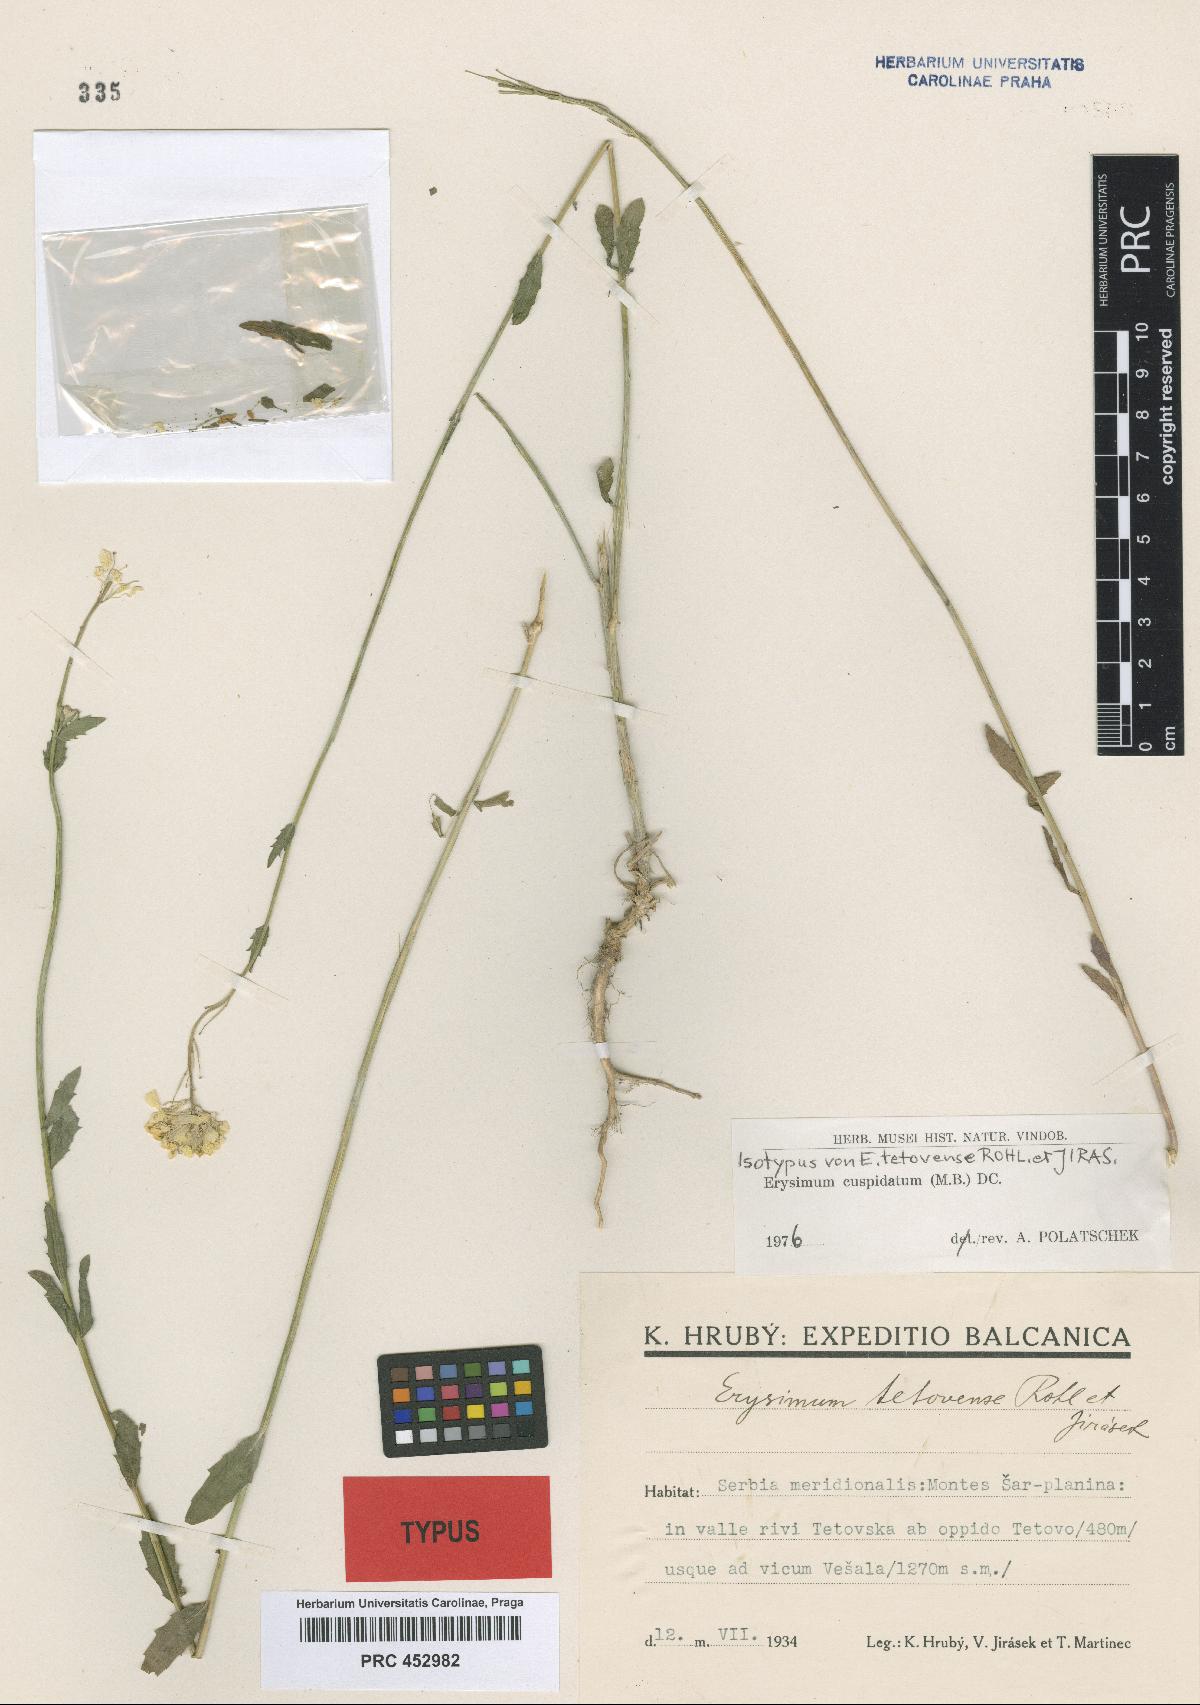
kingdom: Plantae
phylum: Tracheophyta
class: Magnoliopsida
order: Brassicales
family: Brassicaceae
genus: Erysimum
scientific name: Erysimum cuspidatum
